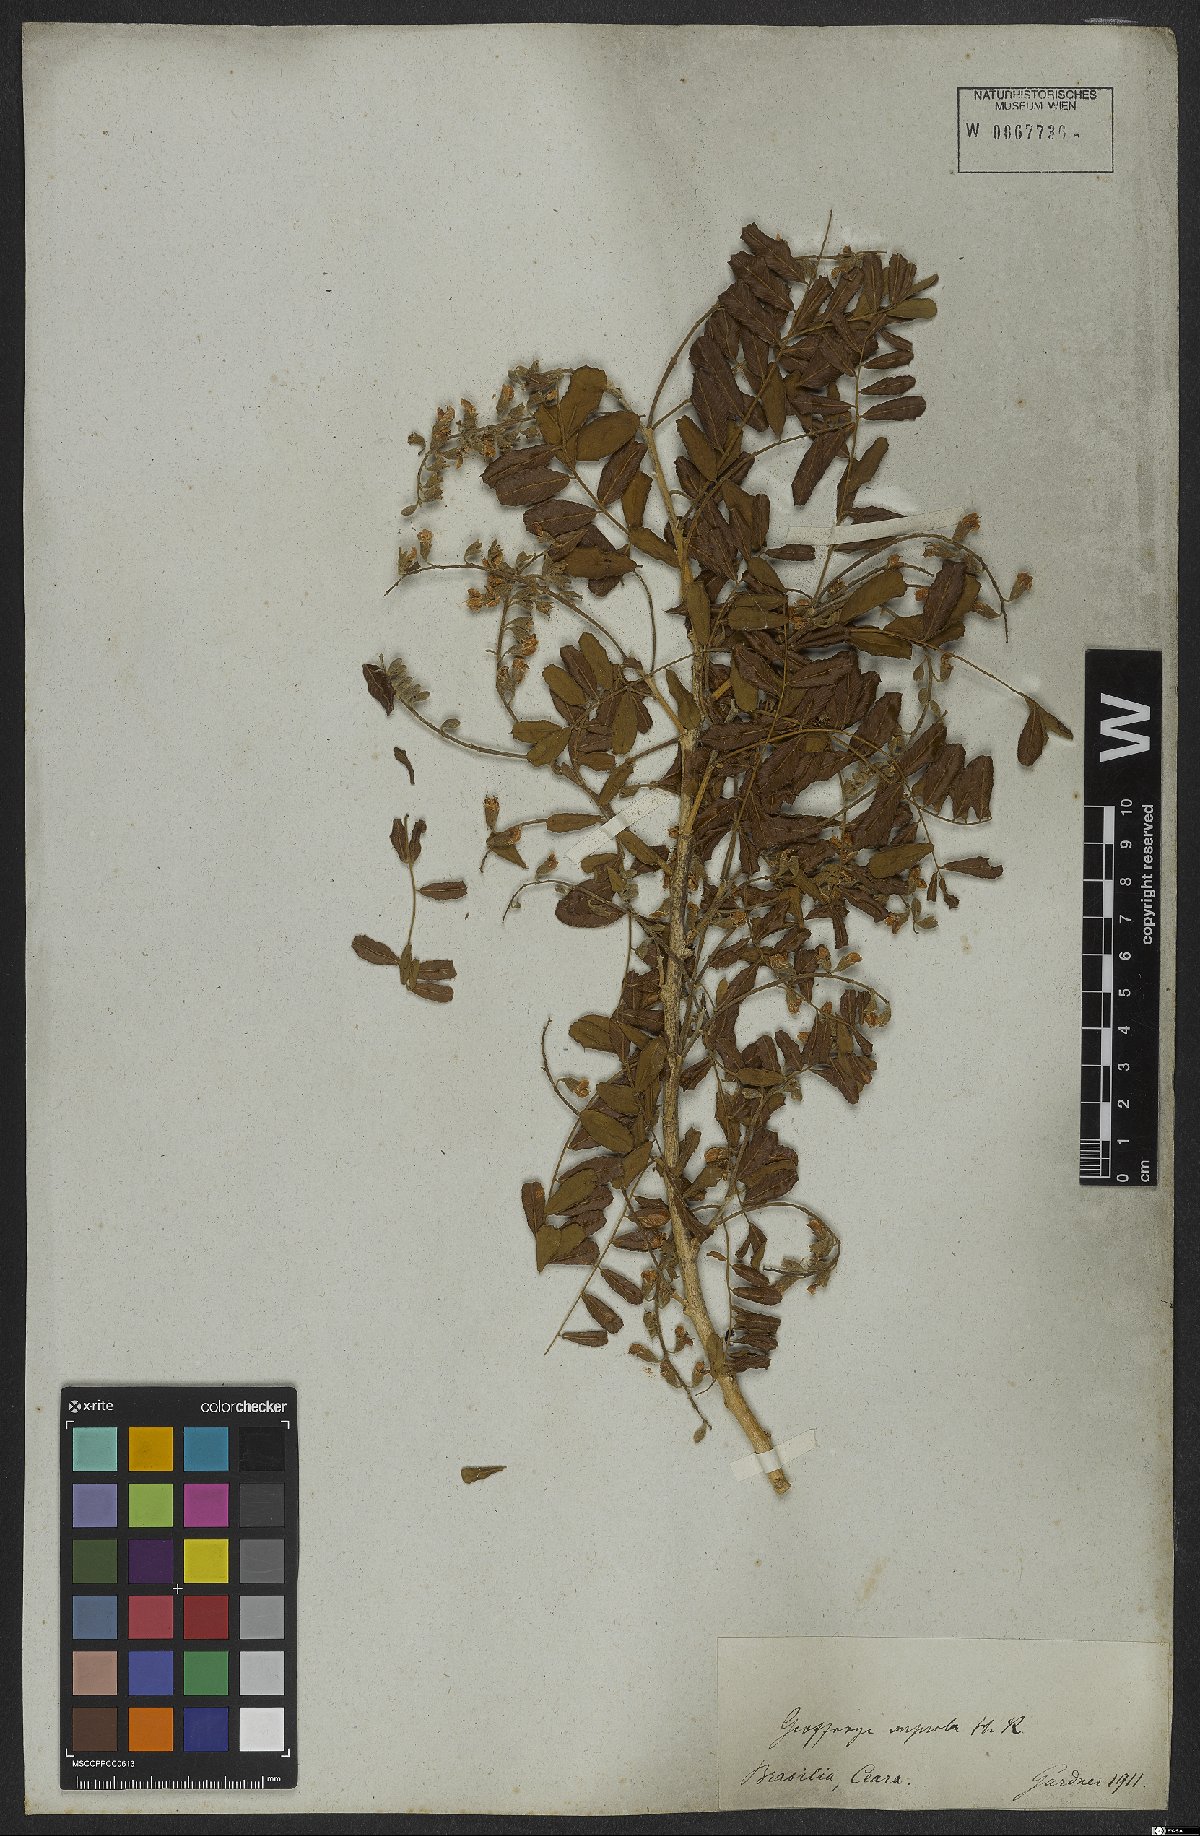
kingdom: Plantae
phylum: Tracheophyta
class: Magnoliopsida
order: Fabales
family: Fabaceae
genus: Geoffroea
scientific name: Geoffroea spinosa
